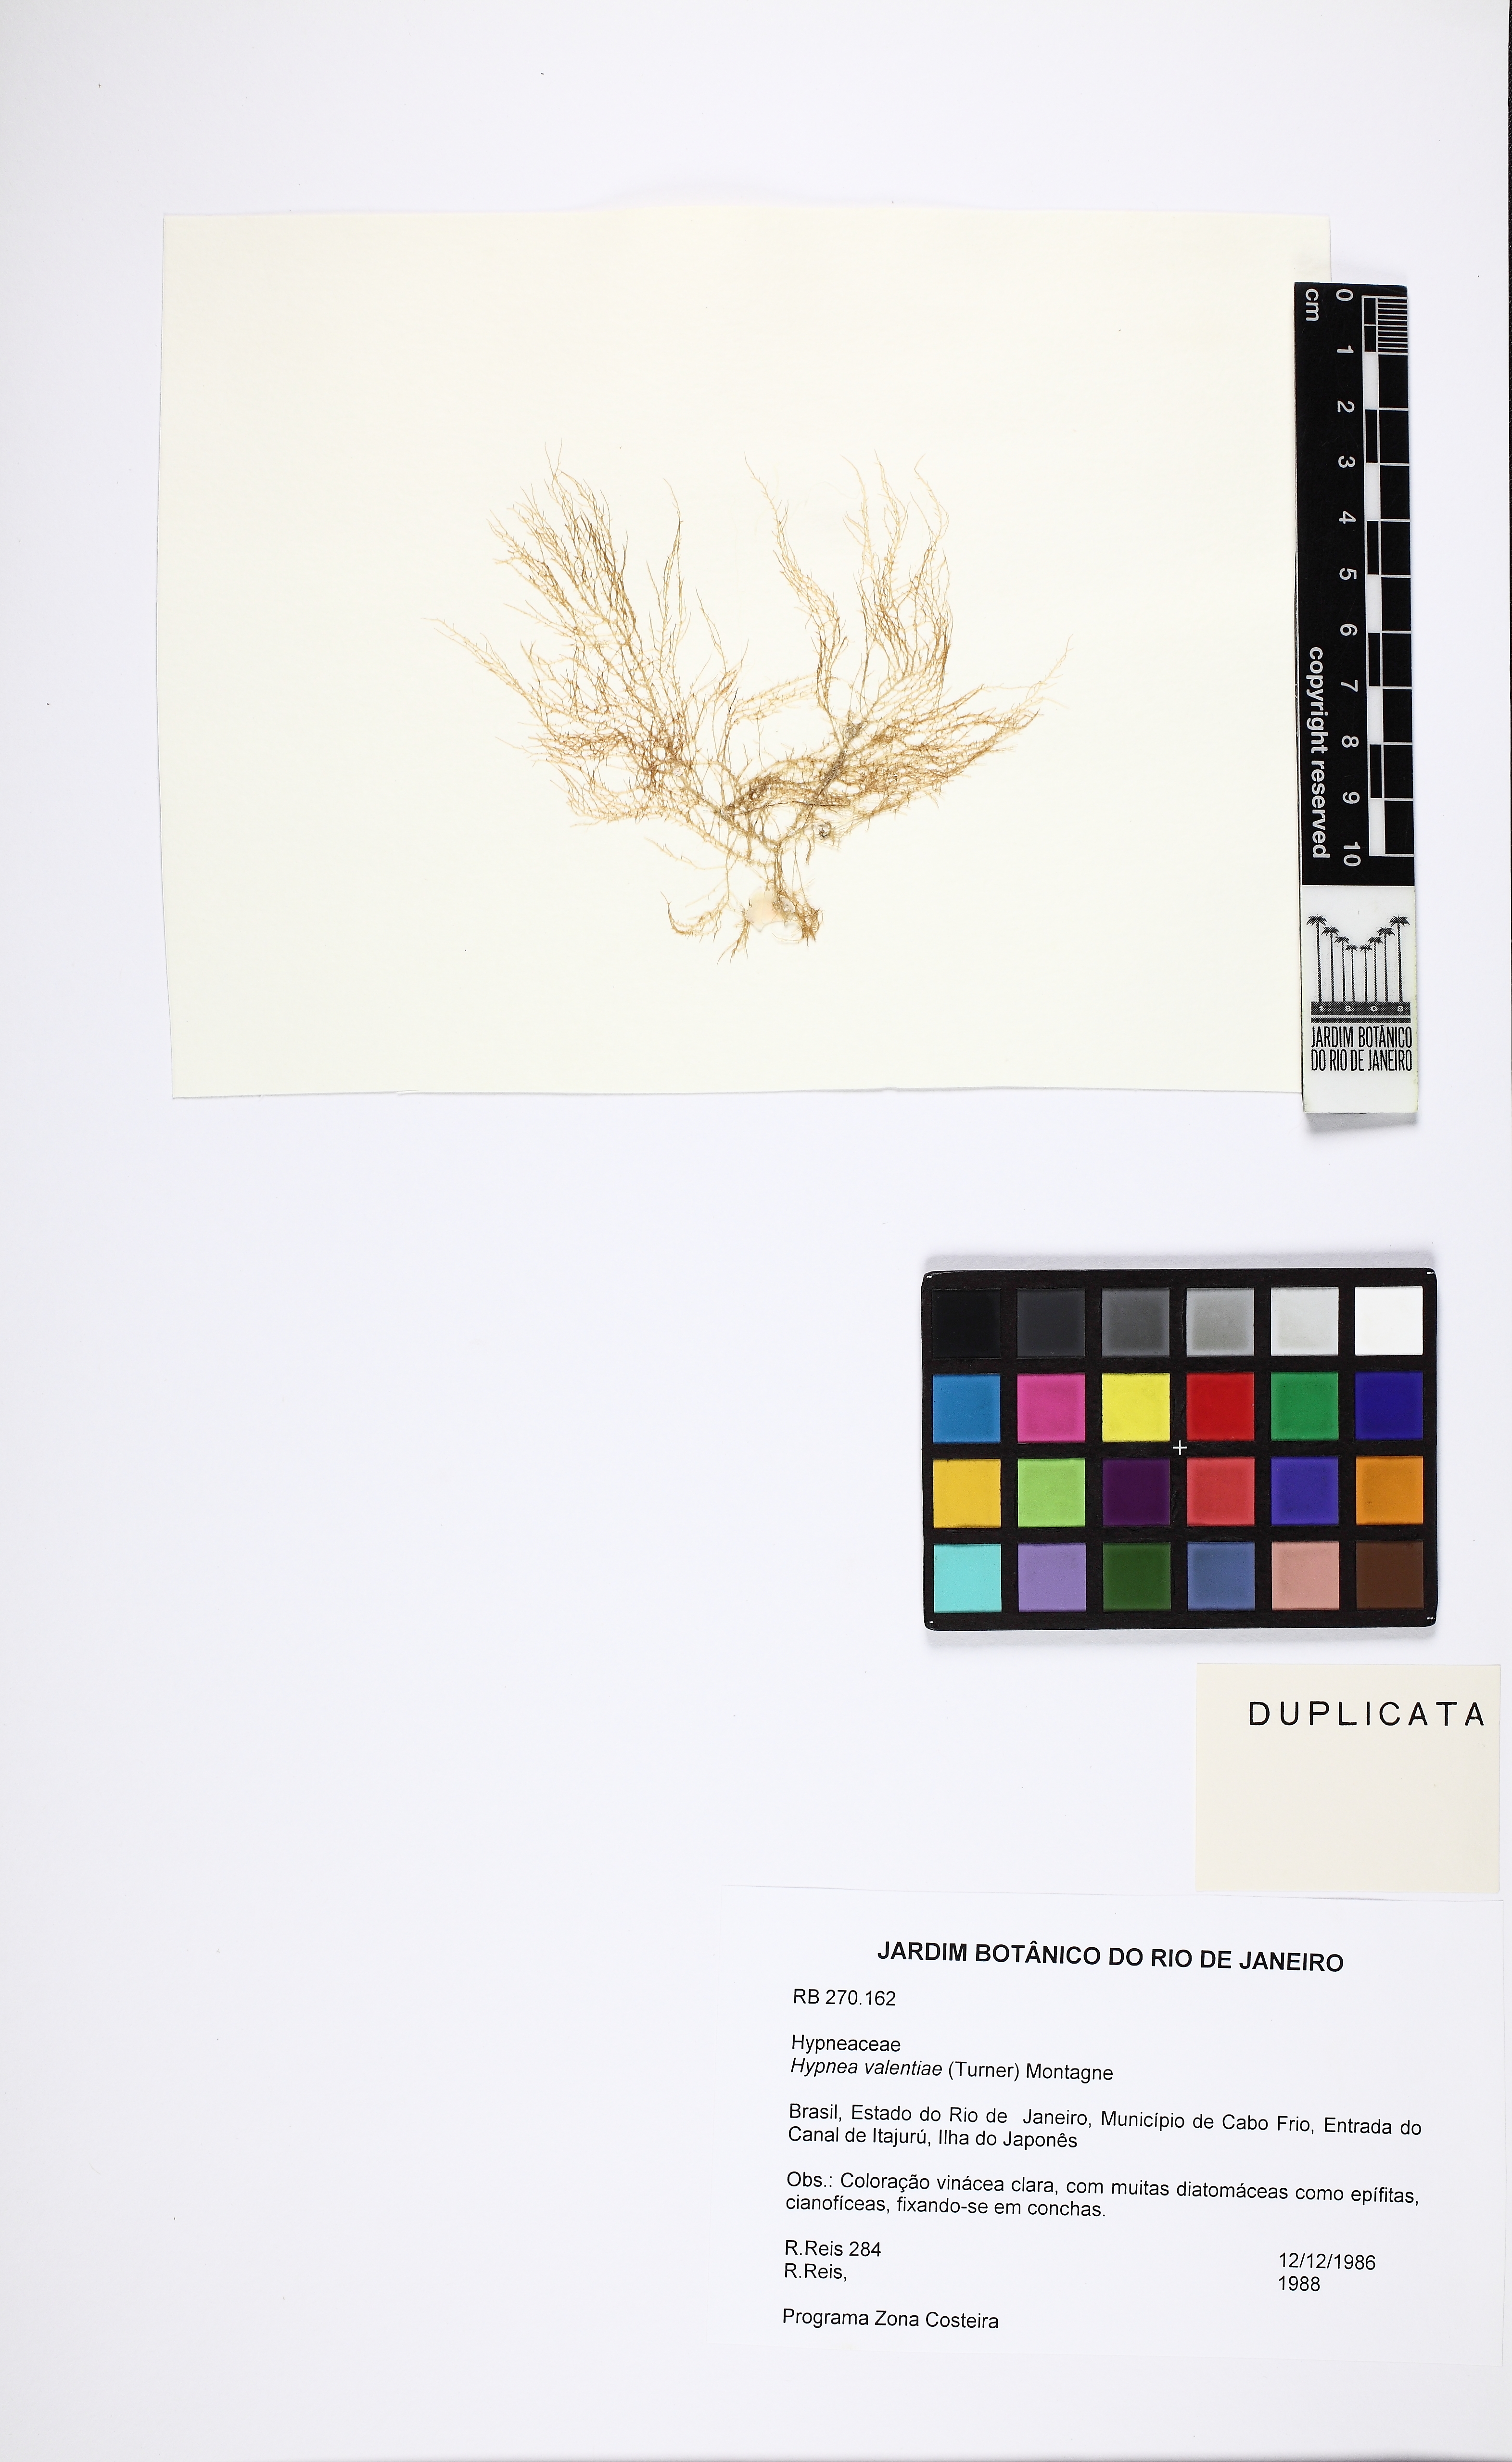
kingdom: Plantae
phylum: Rhodophyta
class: Florideophyceae
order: Gigartinales
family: Cystocloniaceae
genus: Hypnea
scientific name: Hypnea cornuta
